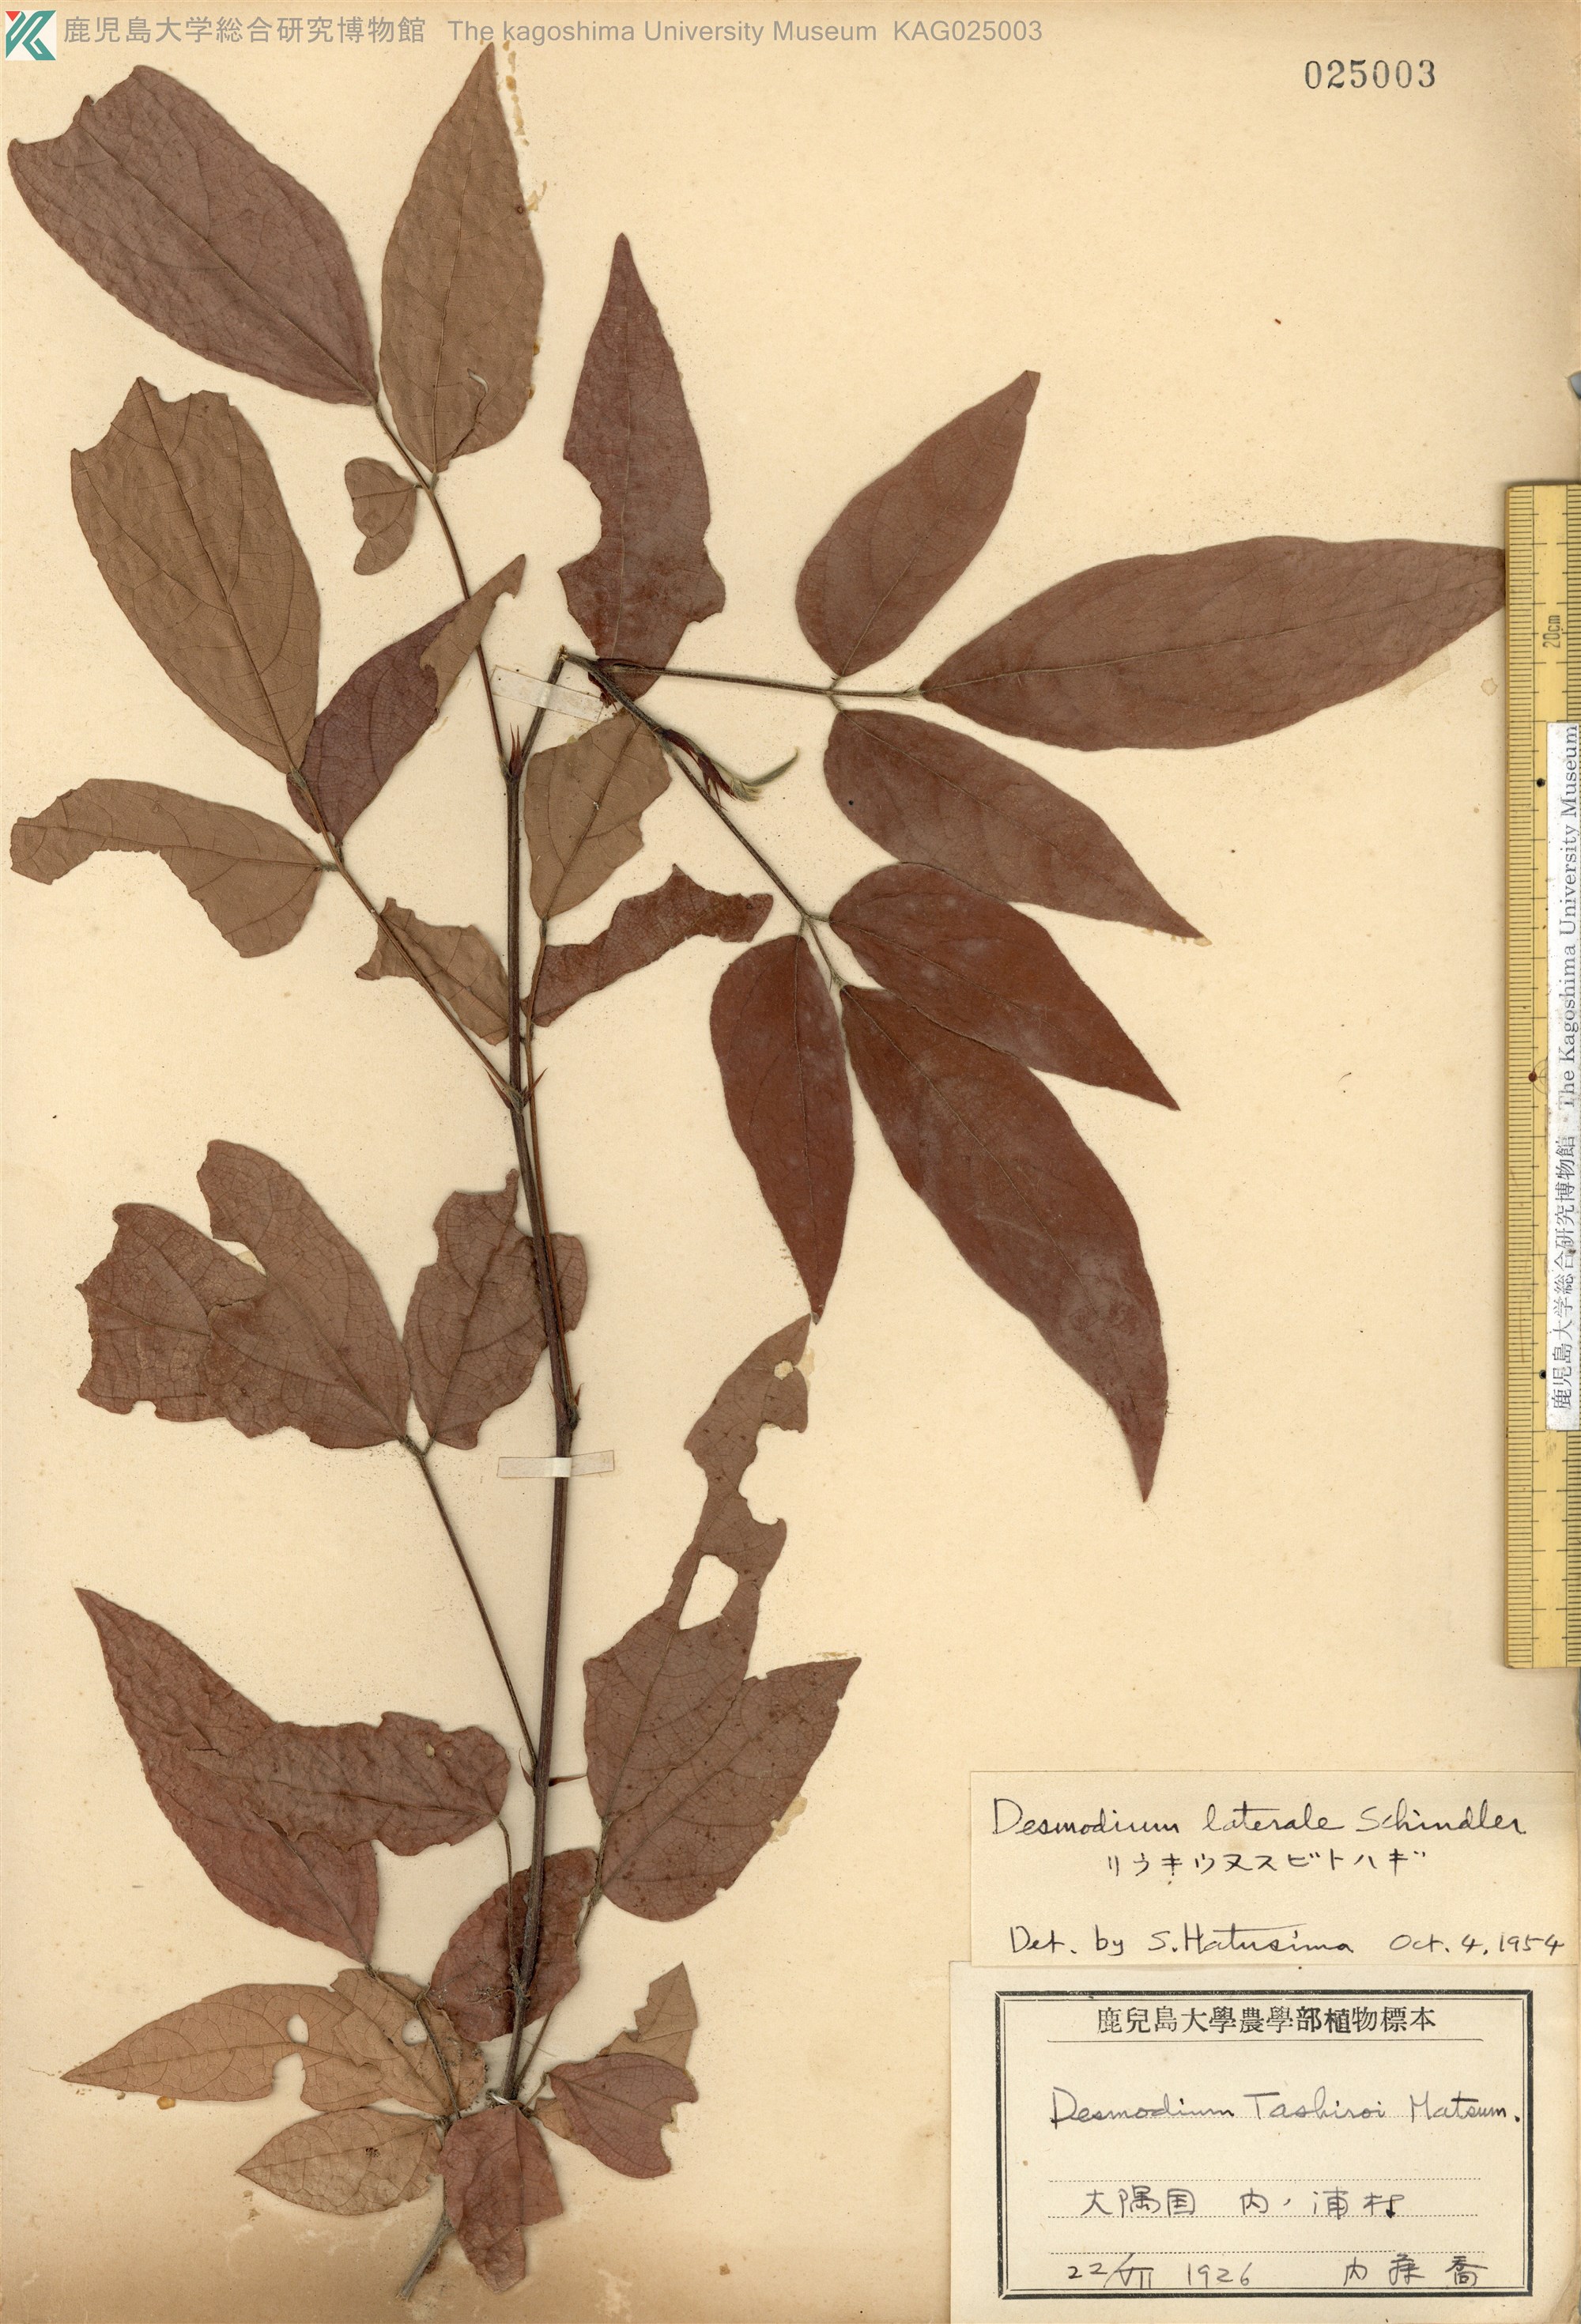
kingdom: Plantae
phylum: Tracheophyta
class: Magnoliopsida
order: Fabales
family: Fabaceae
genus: Hylodesmum
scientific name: Hylodesmum laterale
